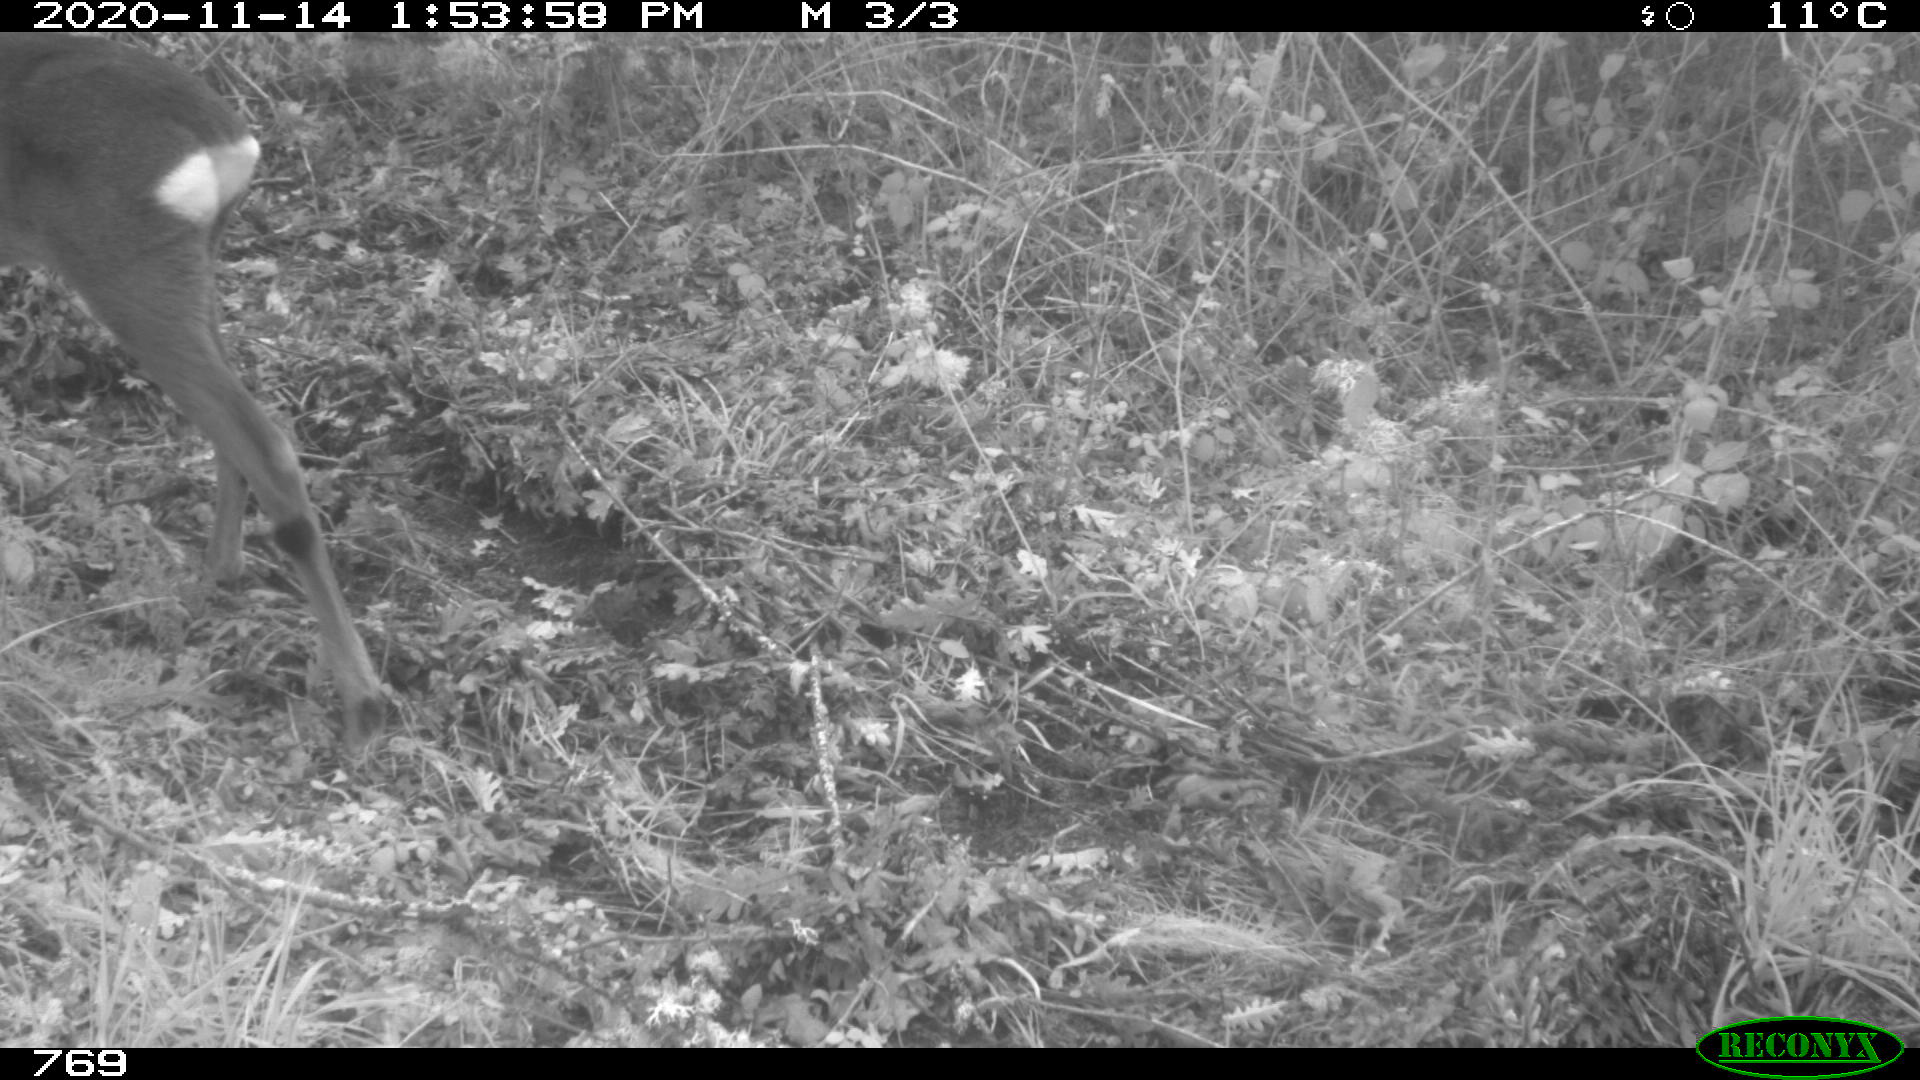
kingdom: Animalia
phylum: Chordata
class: Mammalia
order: Artiodactyla
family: Cervidae
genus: Capreolus
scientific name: Capreolus capreolus
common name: Western roe deer
